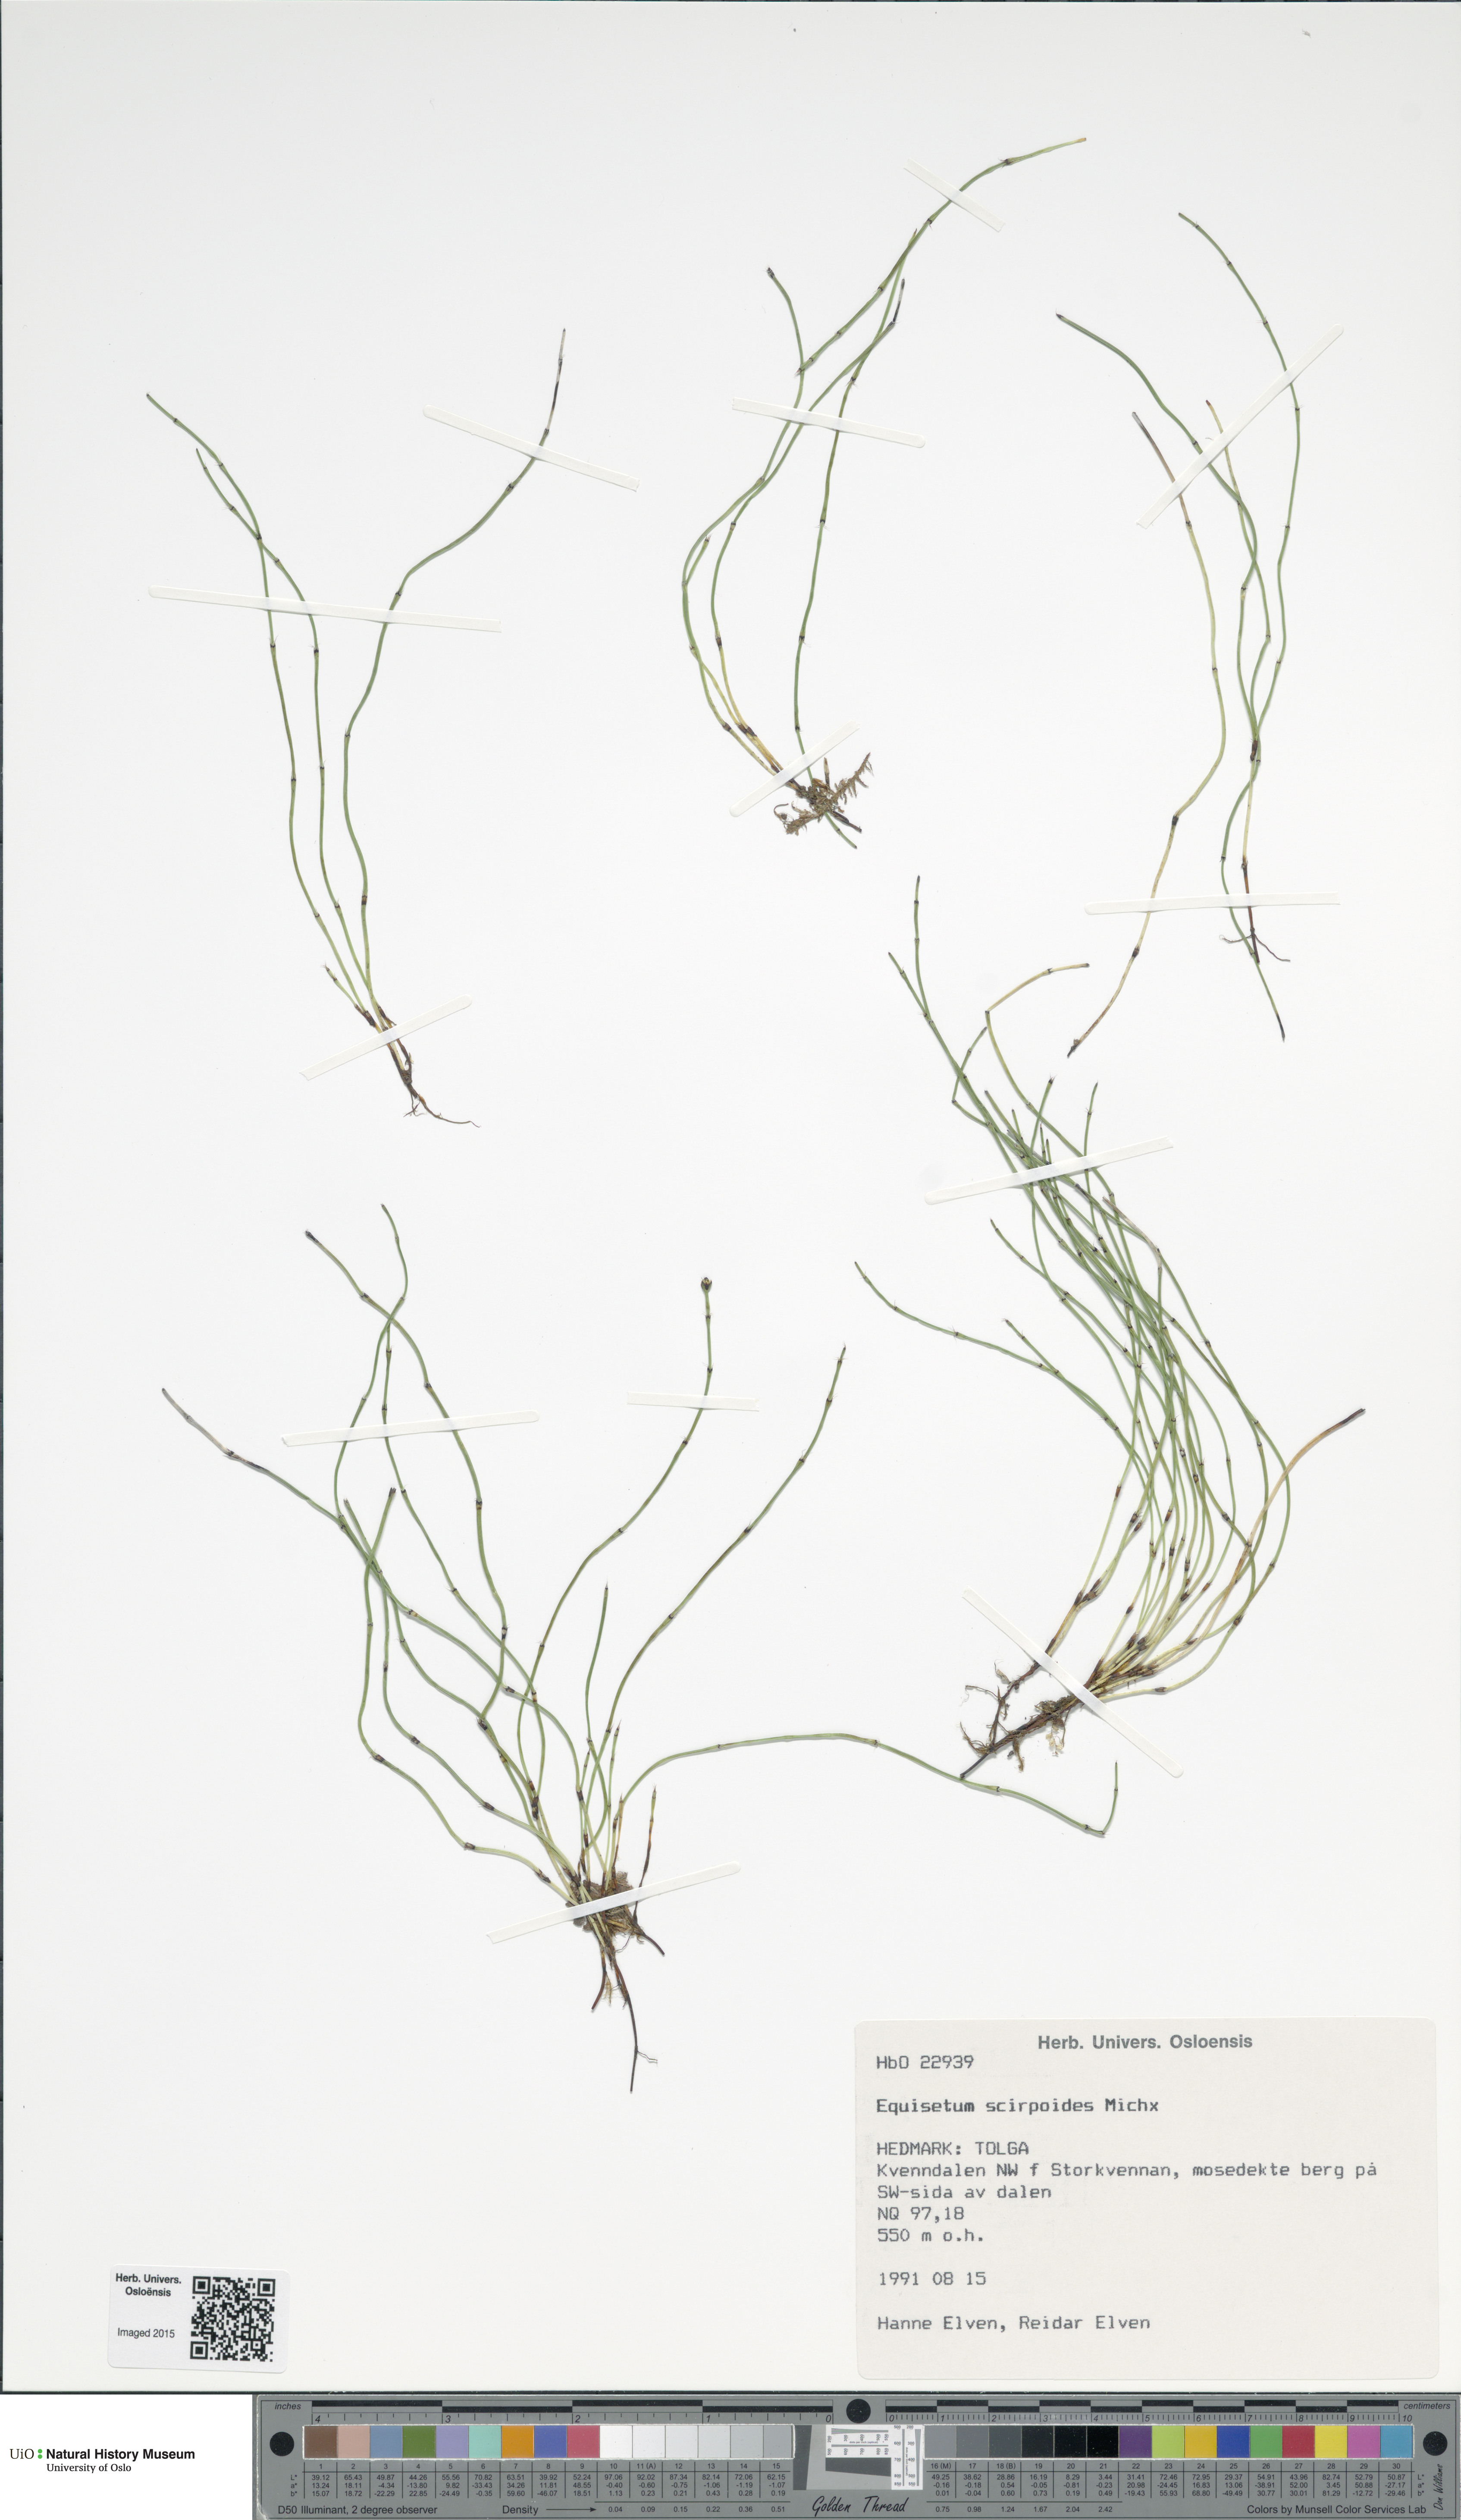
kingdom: Plantae
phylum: Tracheophyta
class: Polypodiopsida
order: Equisetales
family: Equisetaceae
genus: Equisetum
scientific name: Equisetum scirpoides
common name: Delicate horsetail
